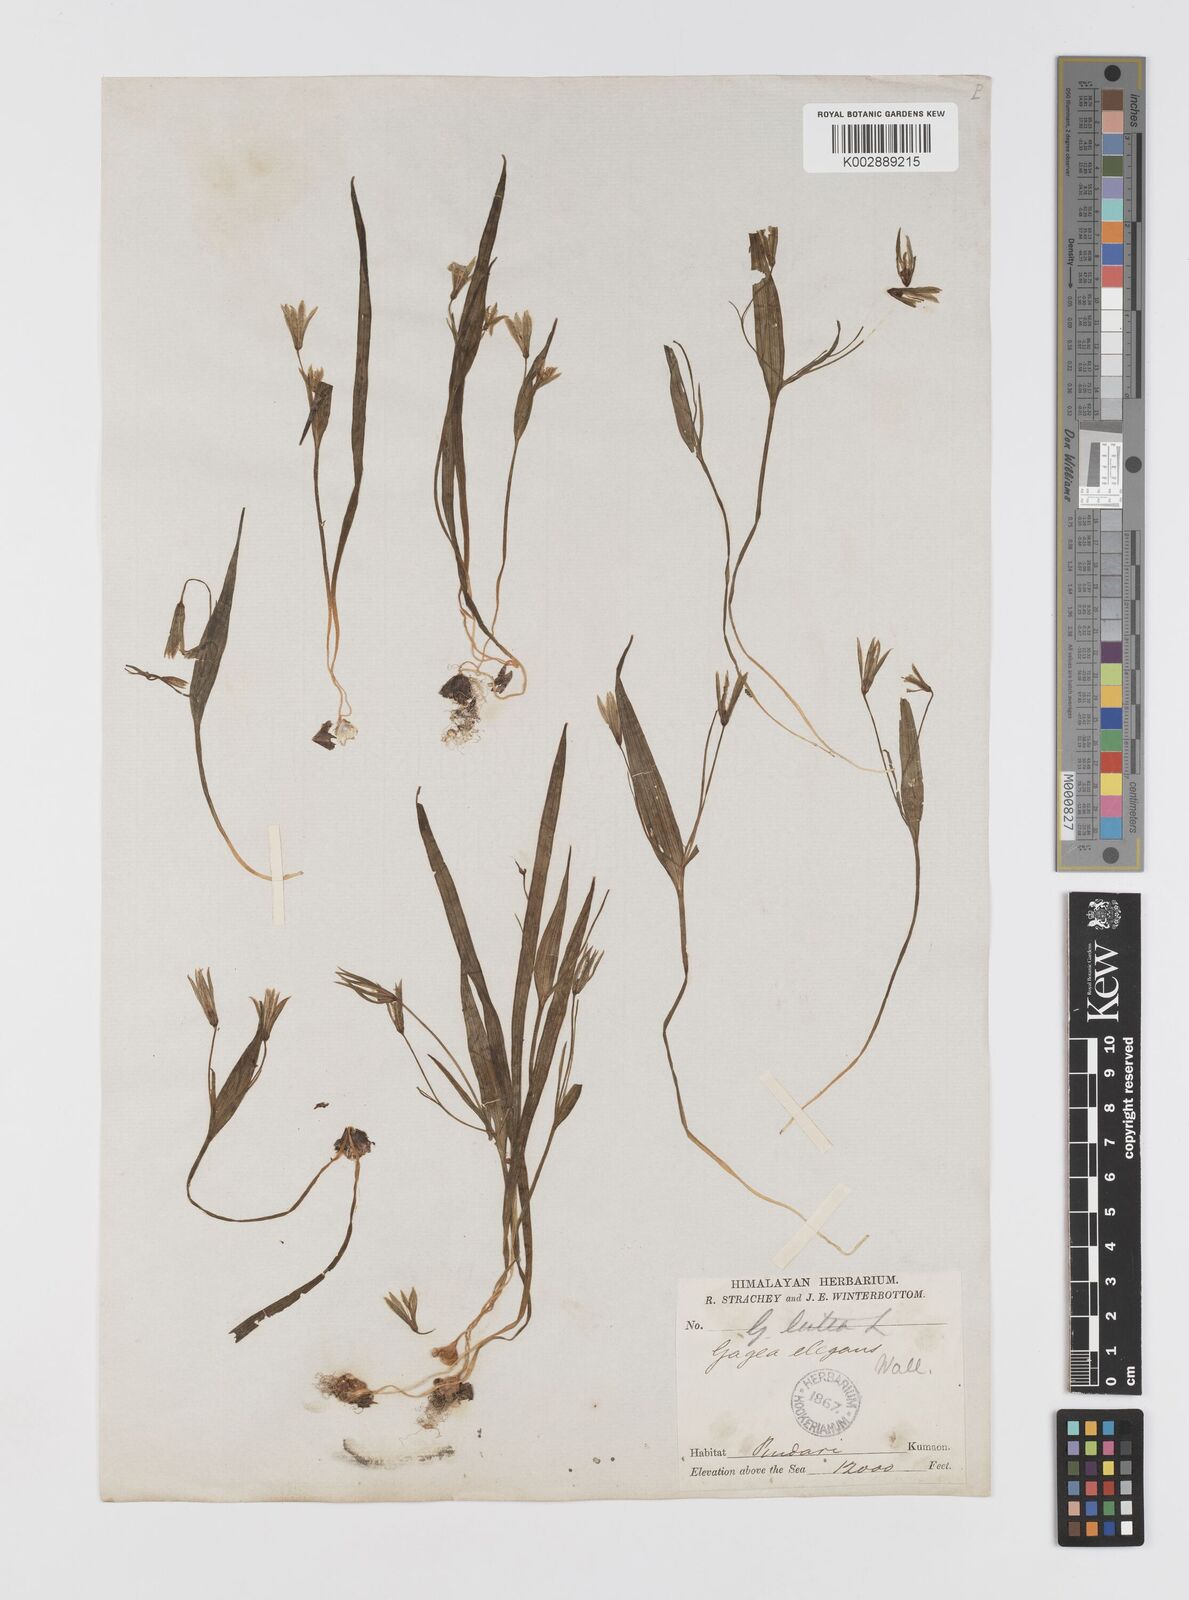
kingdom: Plantae
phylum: Tracheophyta
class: Liliopsida
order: Liliales
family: Liliaceae
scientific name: Liliaceae
